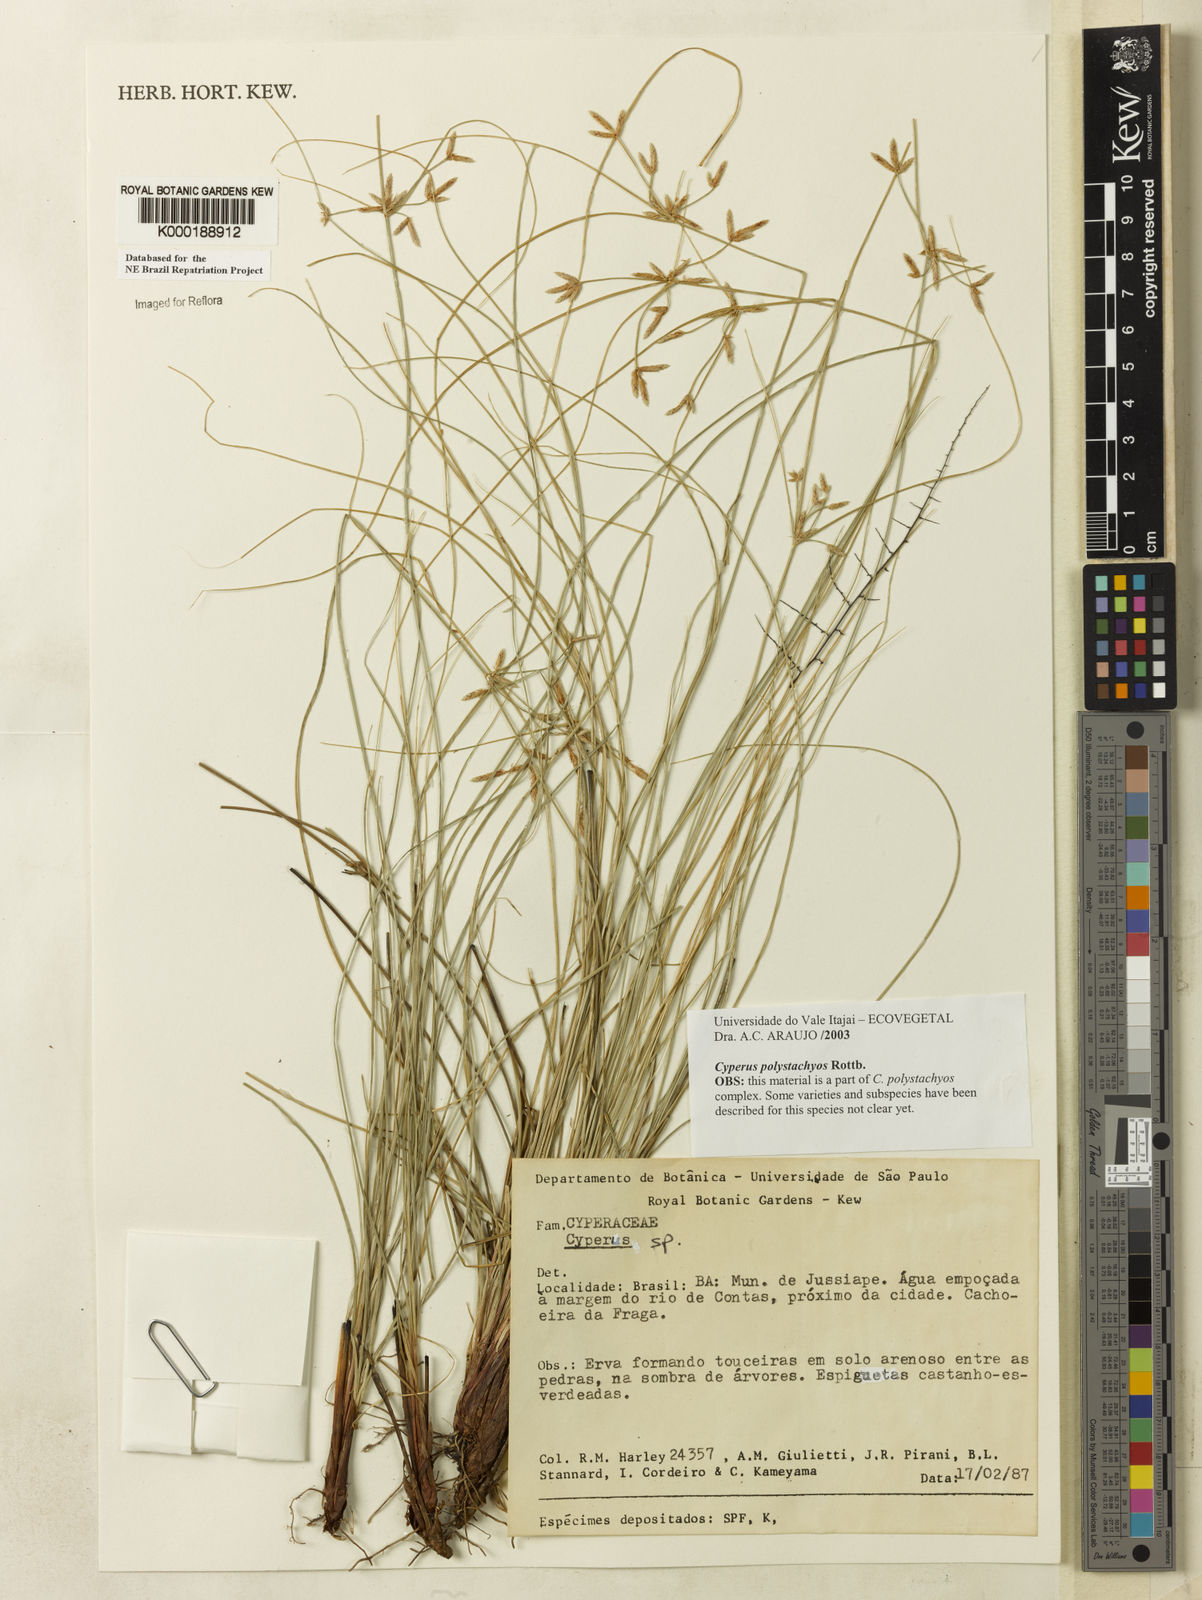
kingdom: Plantae
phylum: Tracheophyta
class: Liliopsida
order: Poales
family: Cyperaceae
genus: Cyperus
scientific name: Cyperus polystachyos
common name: Bunchy flat sedge
